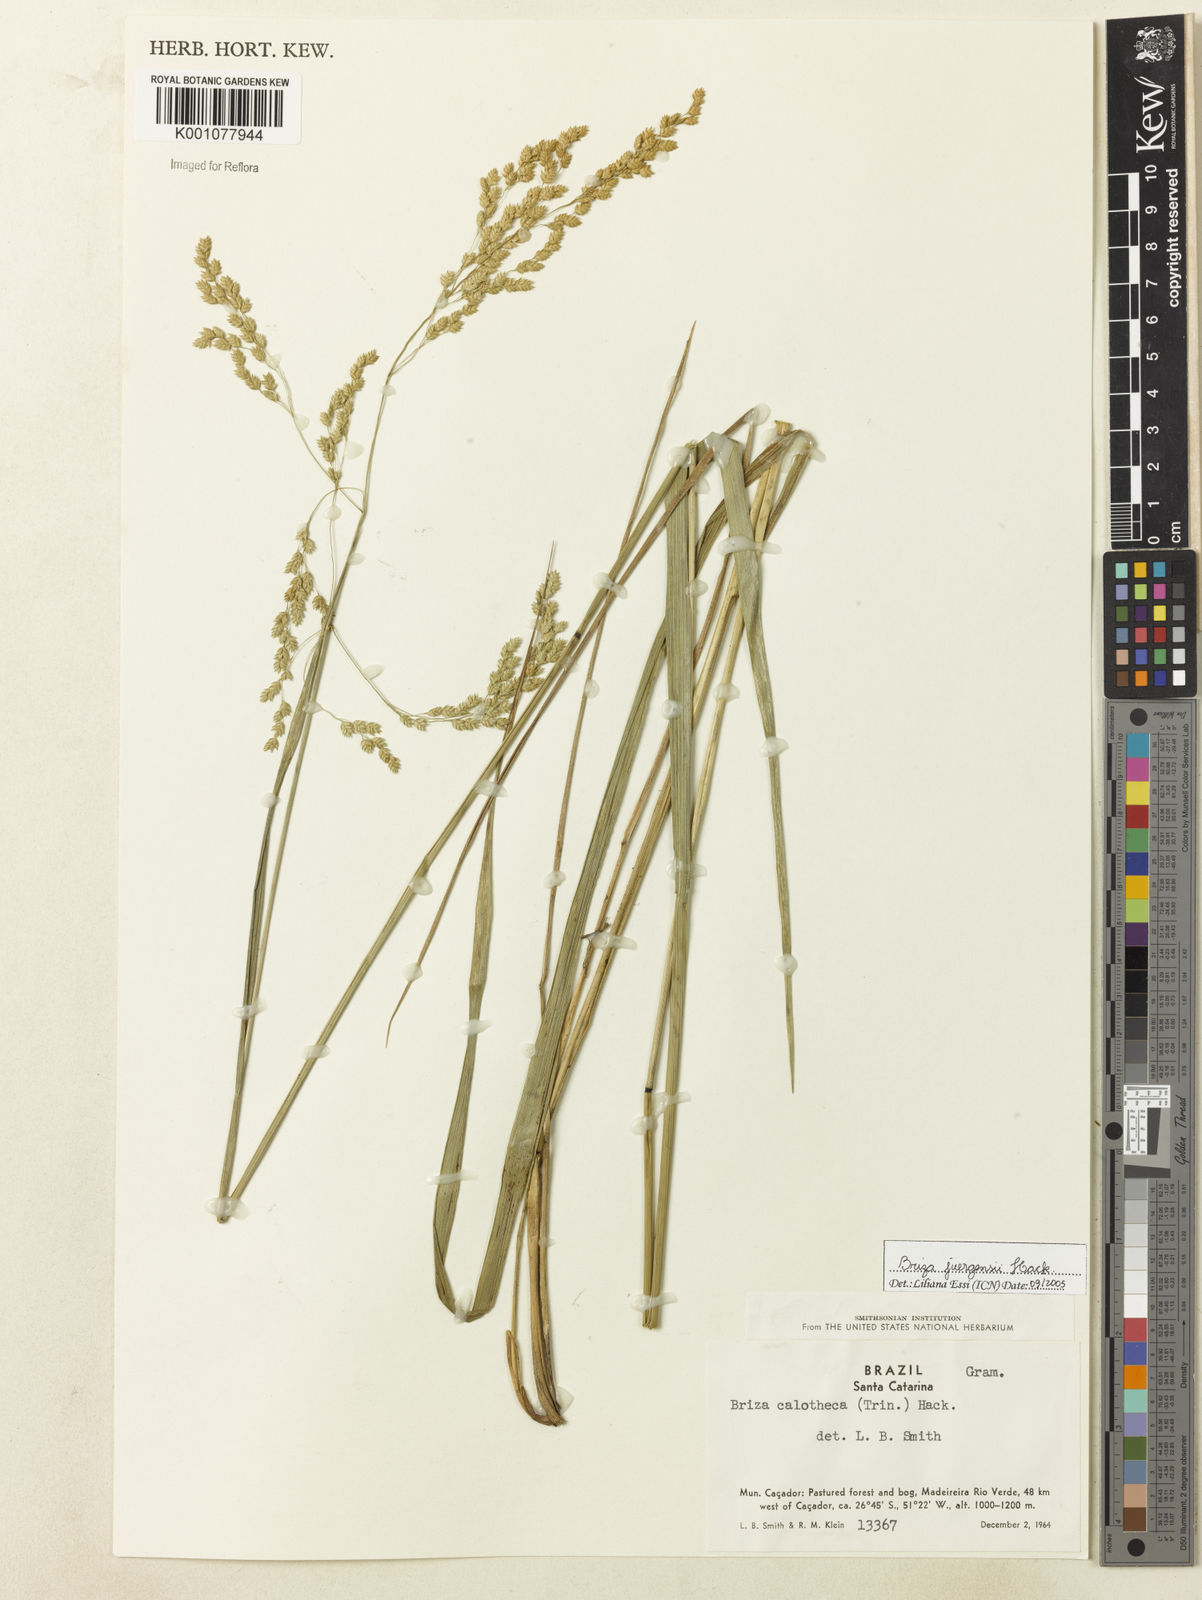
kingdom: Plantae
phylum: Tracheophyta
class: Liliopsida
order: Poales
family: Poaceae
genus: Poidium
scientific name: Poidium juergensii
